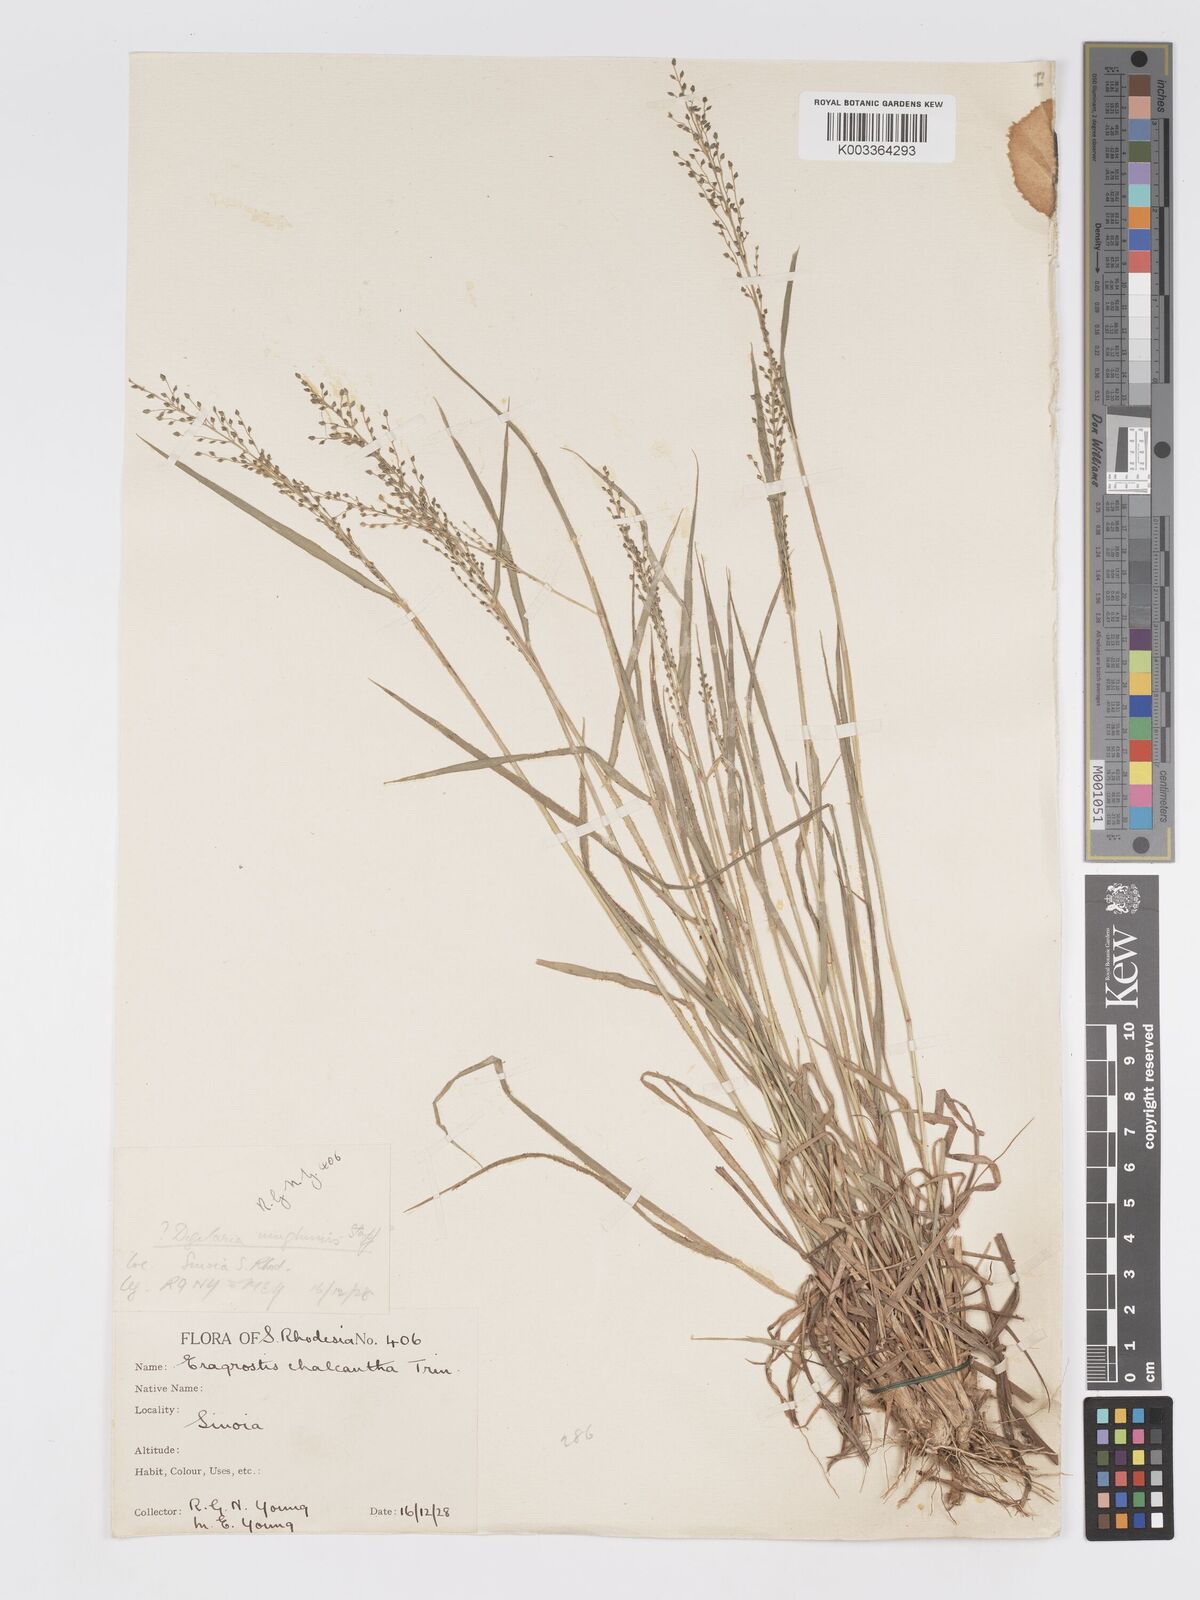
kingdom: Plantae
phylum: Tracheophyta
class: Liliopsida
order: Poales
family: Poaceae
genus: Eragrostis
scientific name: Eragrostis racemosa
